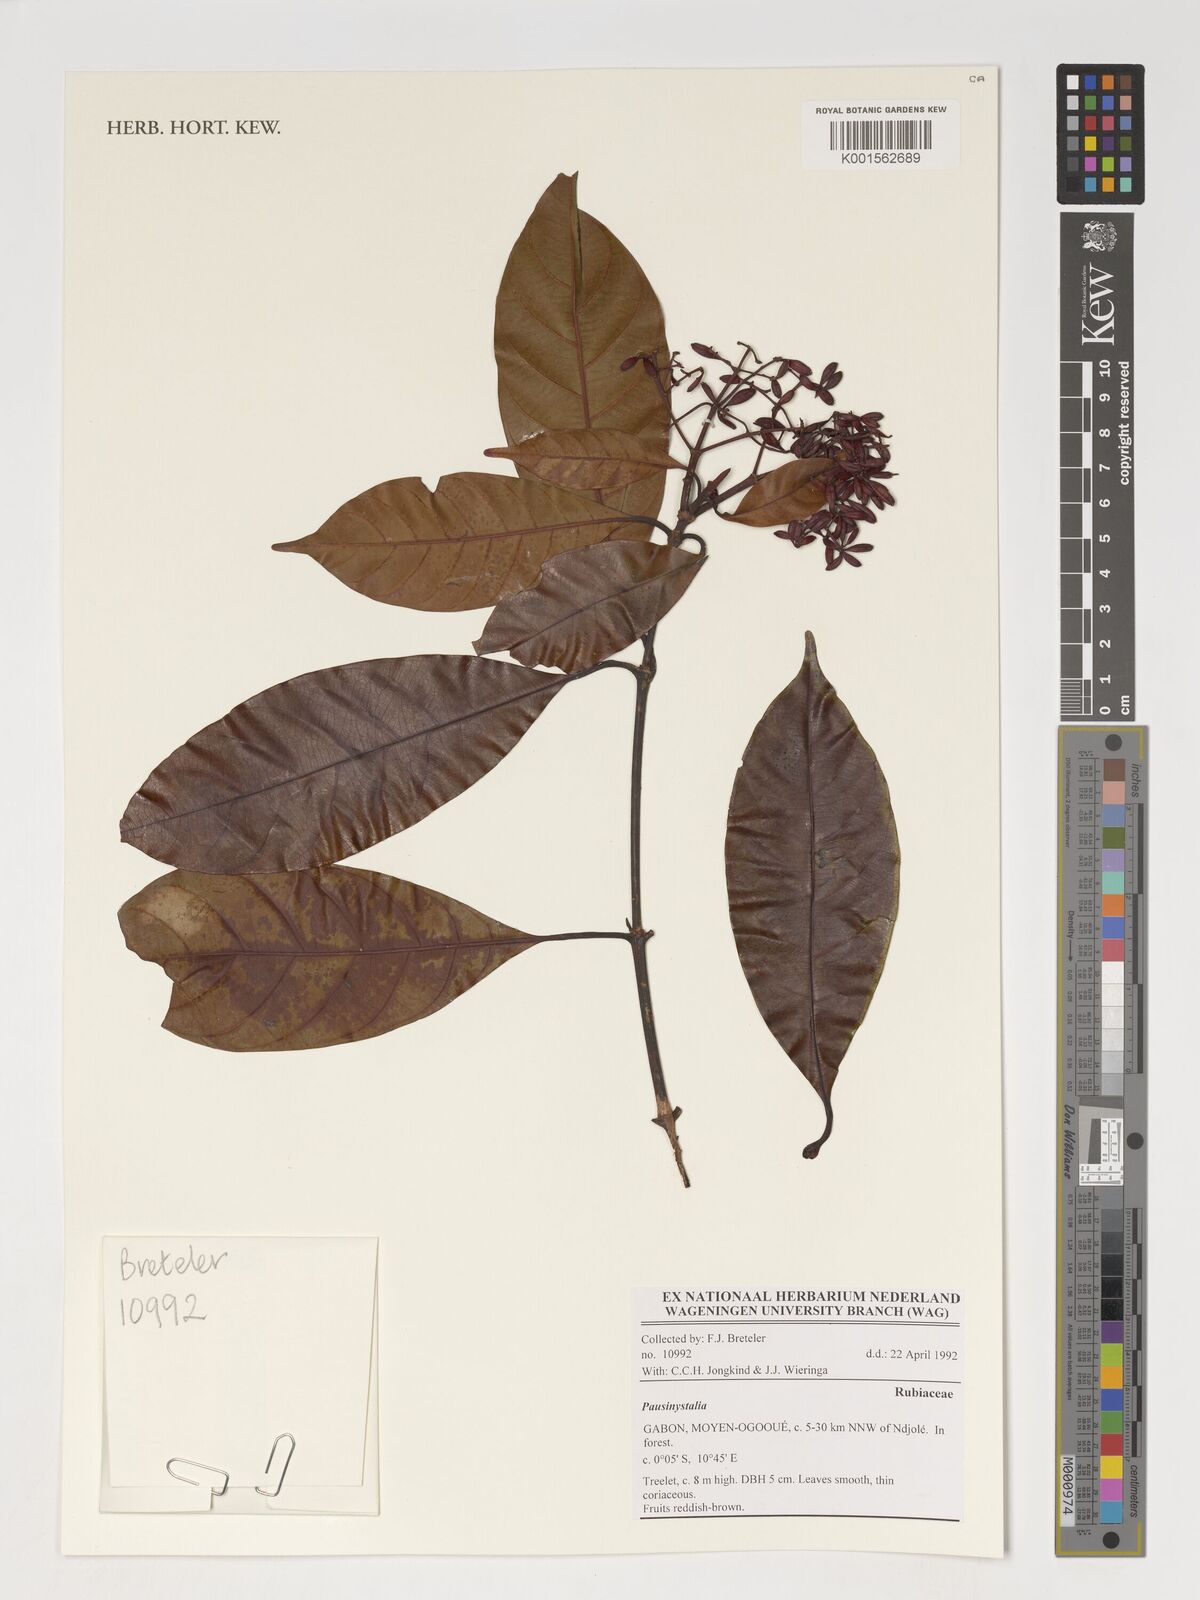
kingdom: Plantae
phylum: Tracheophyta
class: Magnoliopsida
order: Gentianales
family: Rubiaceae
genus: Pausinystalia
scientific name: Pausinystalia
